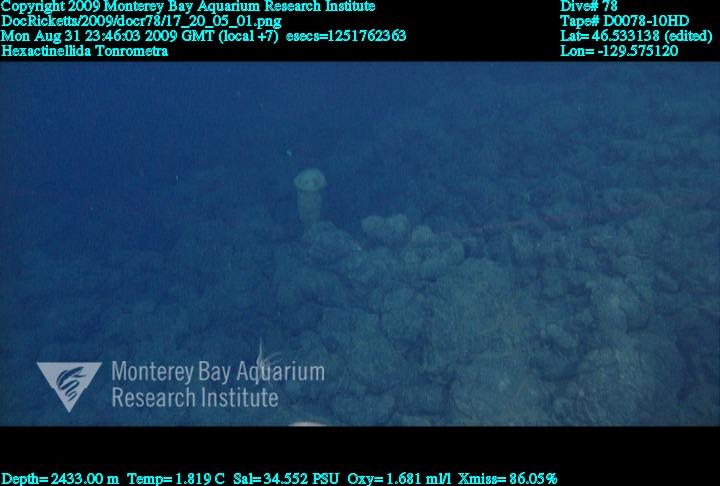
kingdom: Animalia
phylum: Porifera
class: Hexactinellida
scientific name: Hexactinellida
